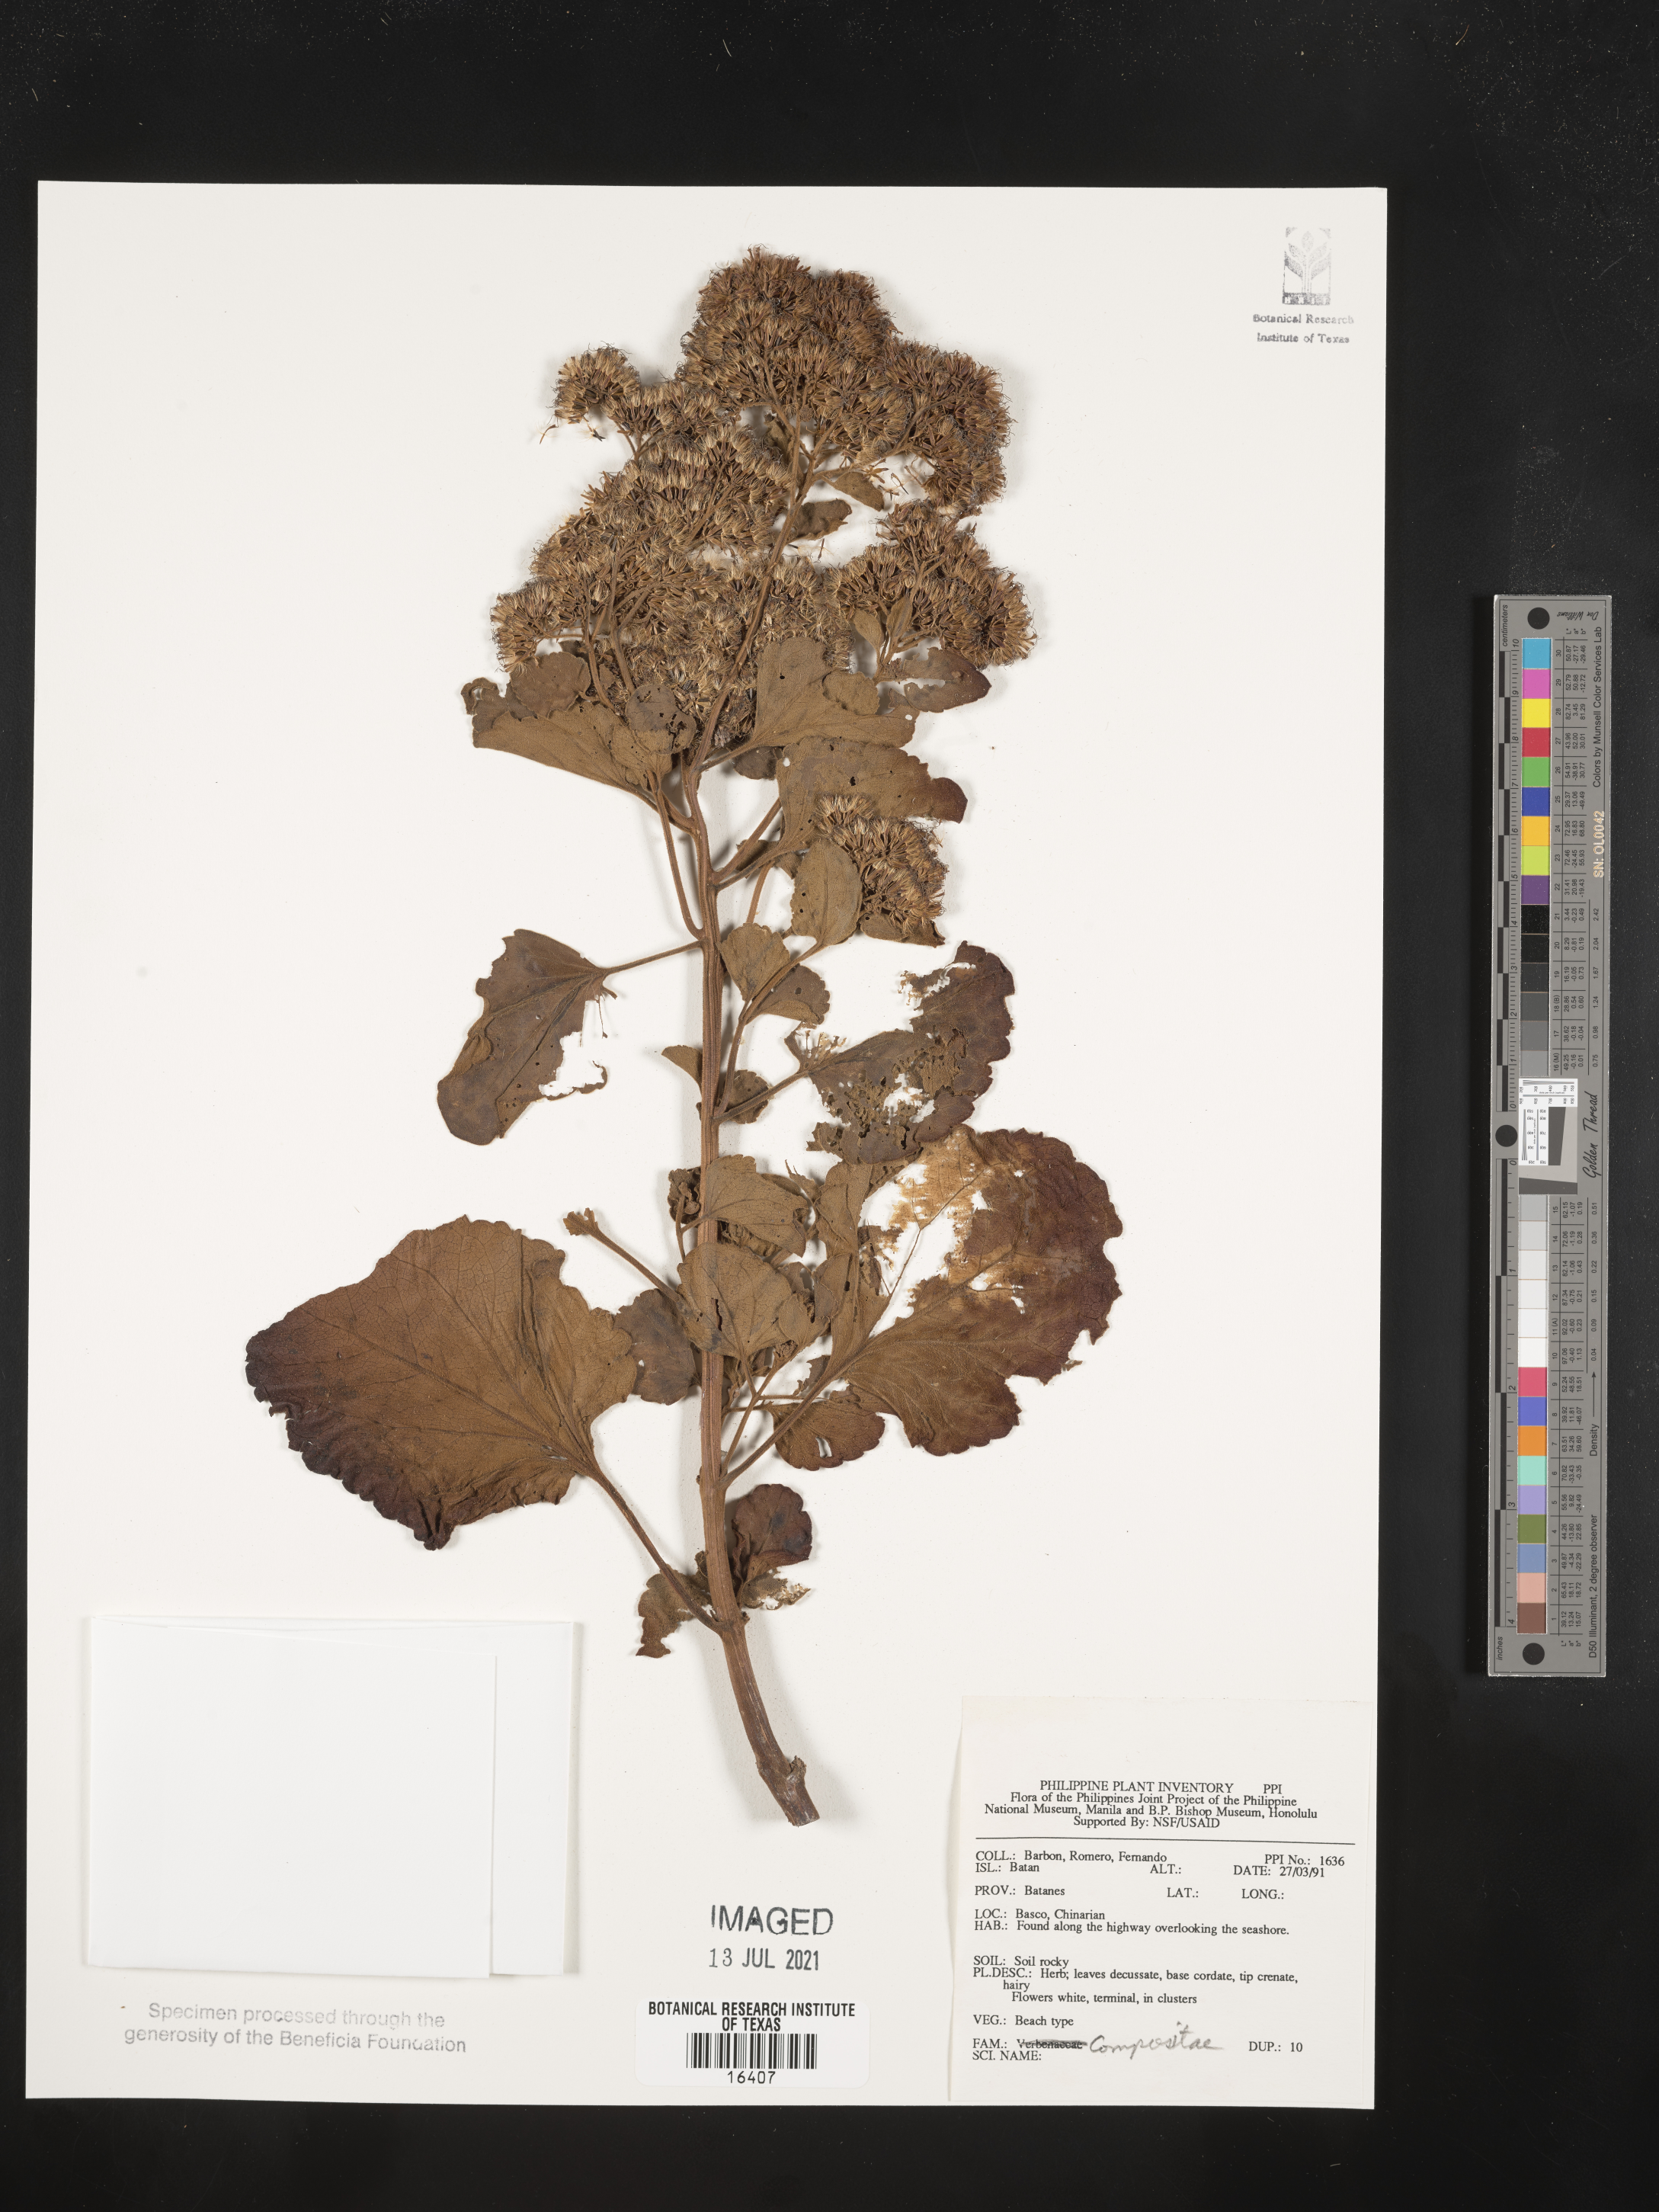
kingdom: Plantae
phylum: Tracheophyta
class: Magnoliopsida
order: Asterales
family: Asteraceae
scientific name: Asteraceae
